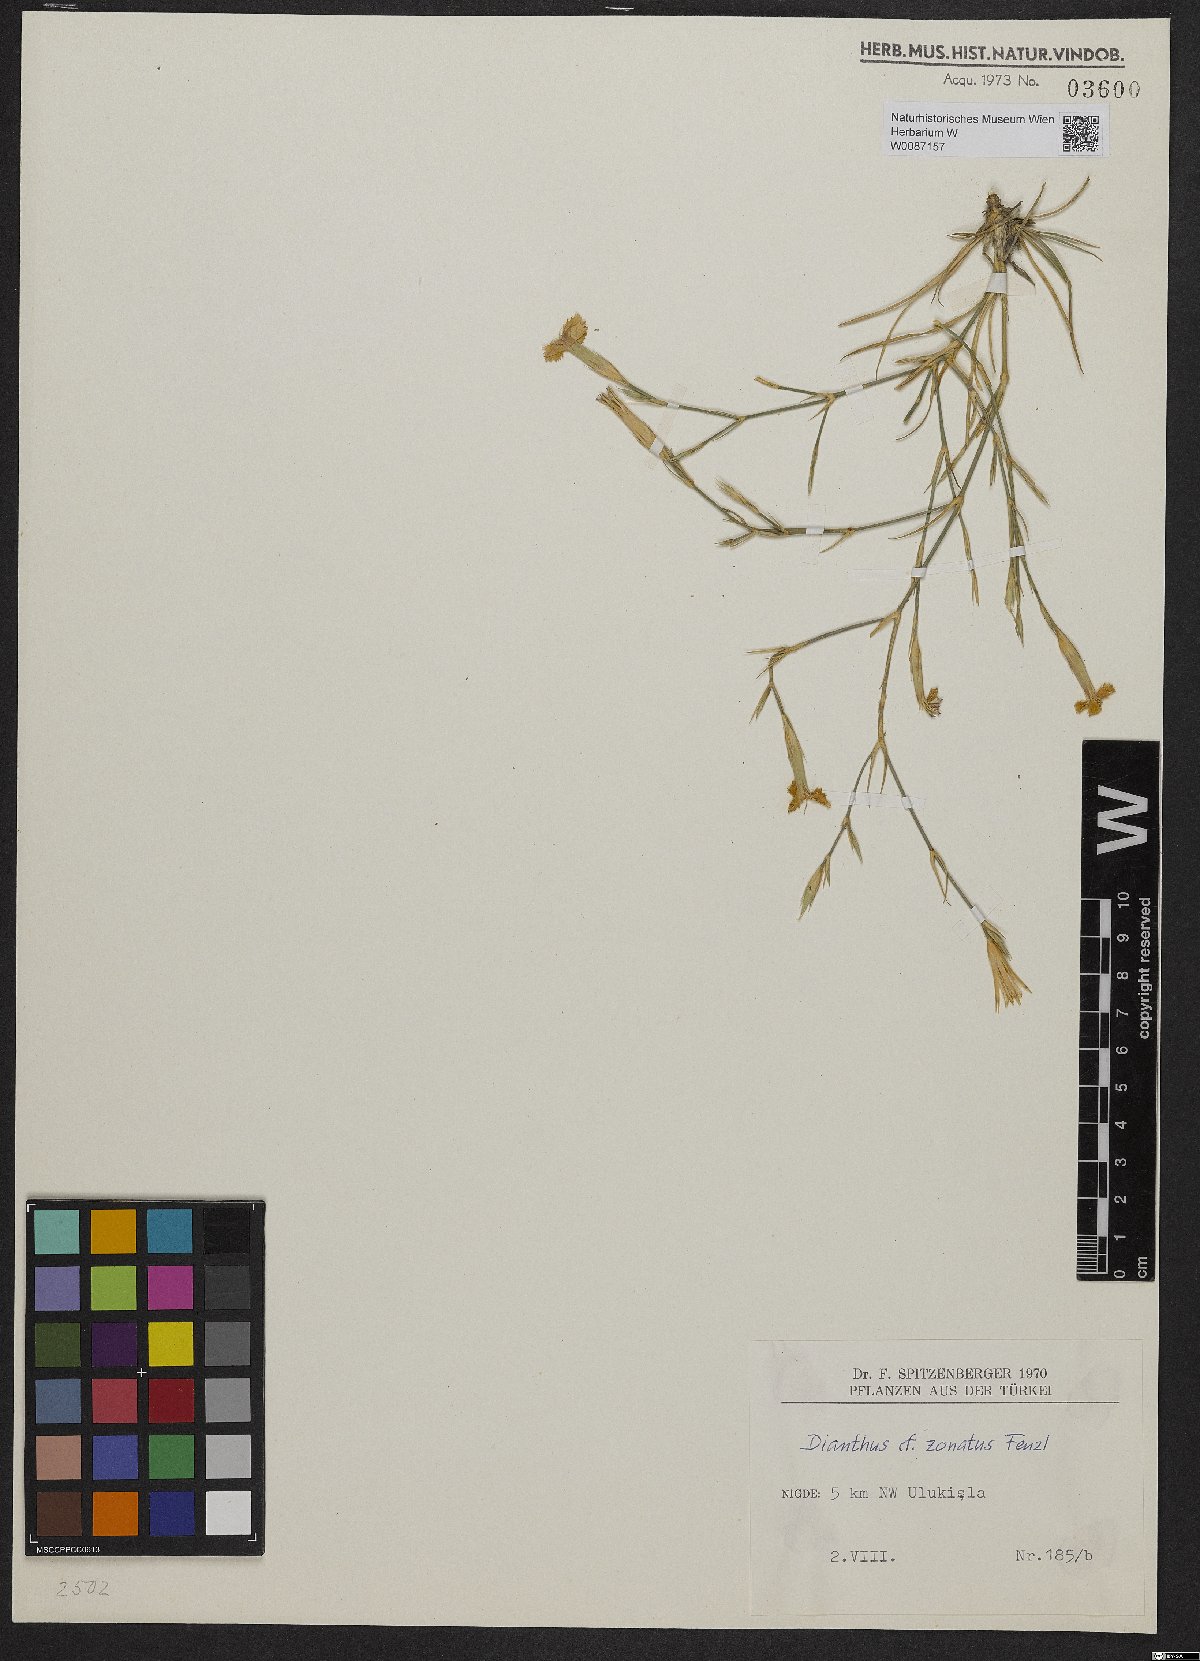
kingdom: Plantae
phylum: Tracheophyta
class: Magnoliopsida
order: Caryophyllales
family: Caryophyllaceae
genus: Dianthus
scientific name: Dianthus zonatus
